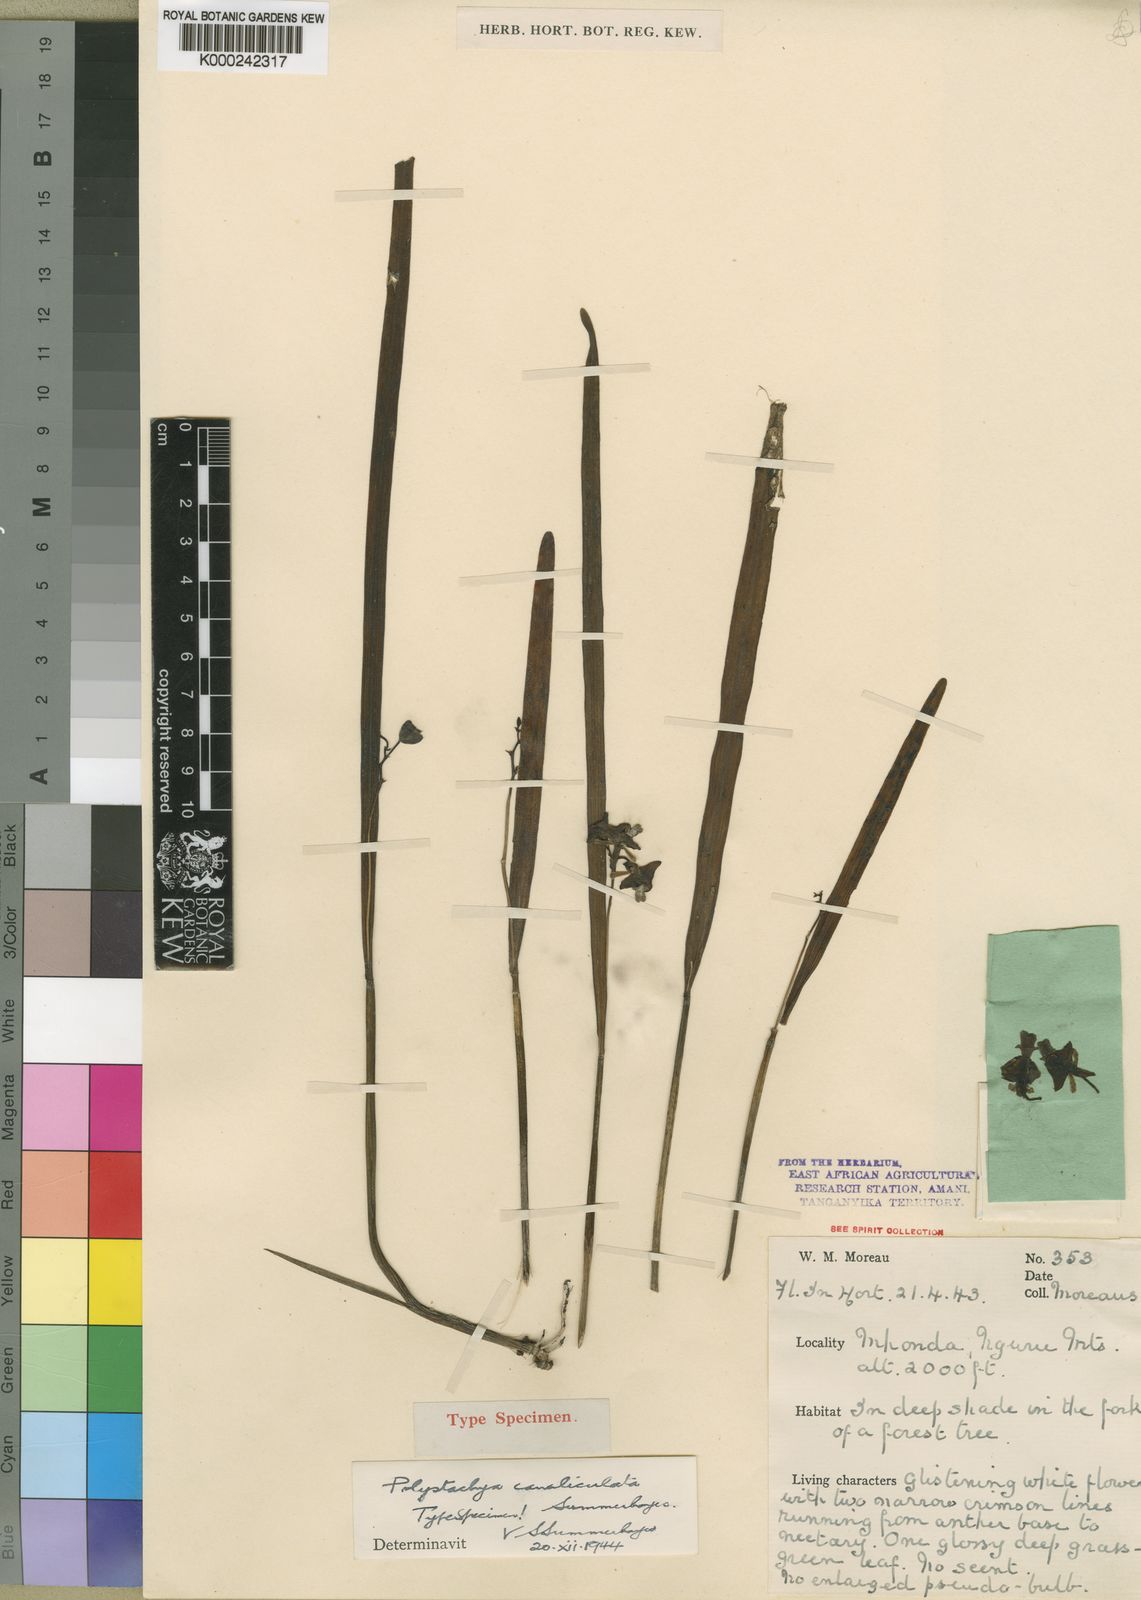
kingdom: Plantae
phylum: Tracheophyta
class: Liliopsida
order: Asparagales
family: Orchidaceae
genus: Polystachya
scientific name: Polystachya canaliculata
